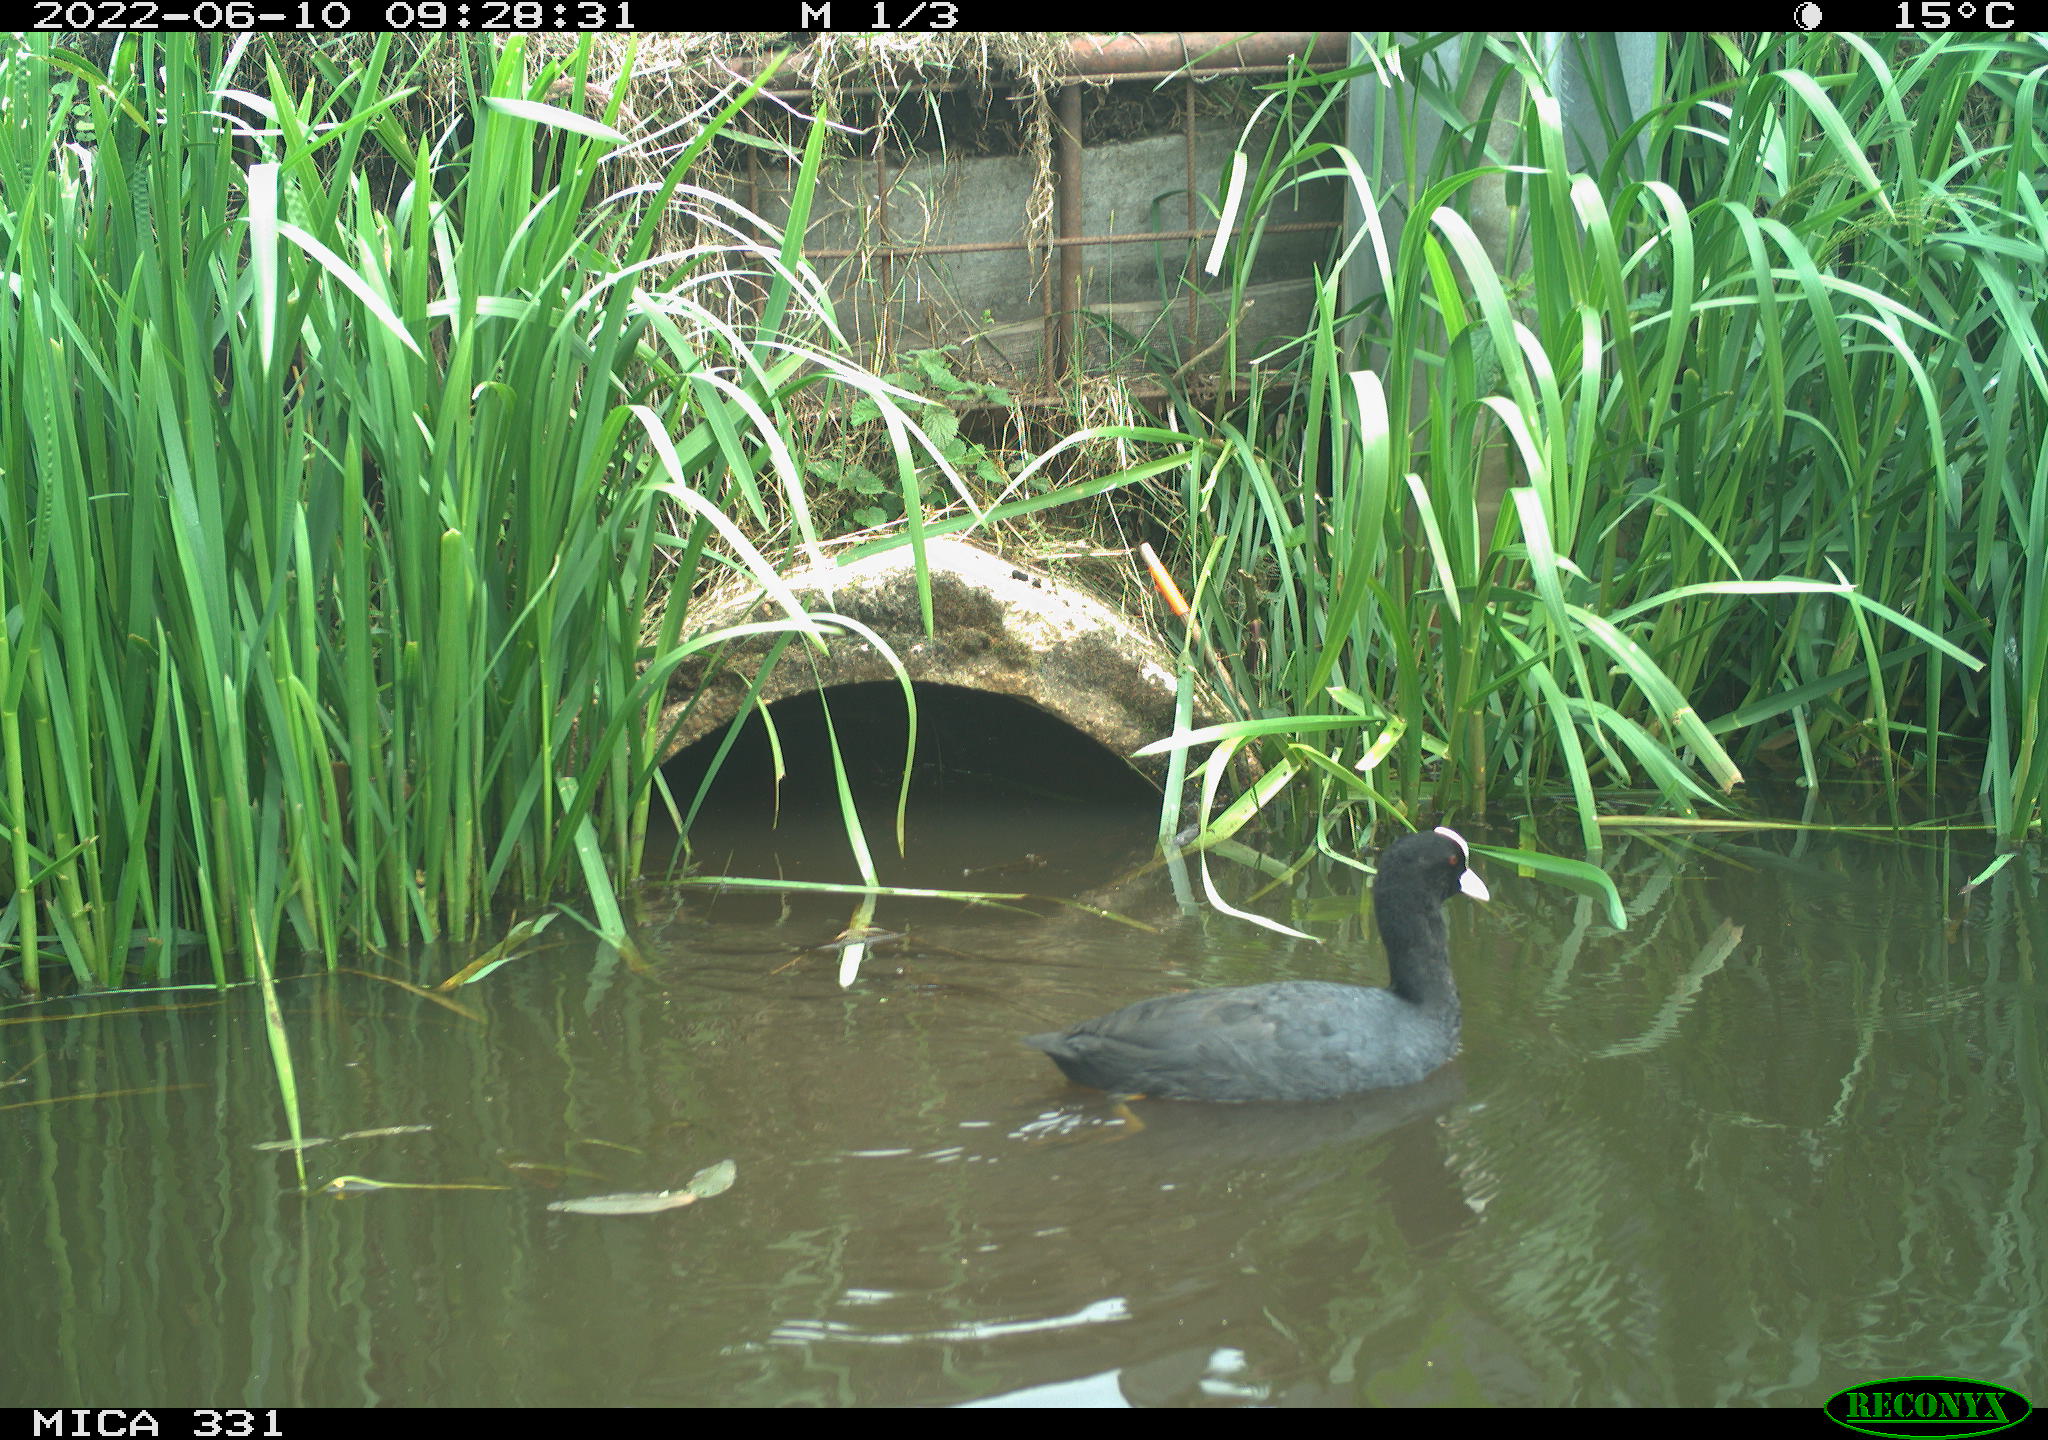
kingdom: Animalia
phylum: Chordata
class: Aves
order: Gruiformes
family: Rallidae
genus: Fulica
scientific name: Fulica atra
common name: Eurasian coot
